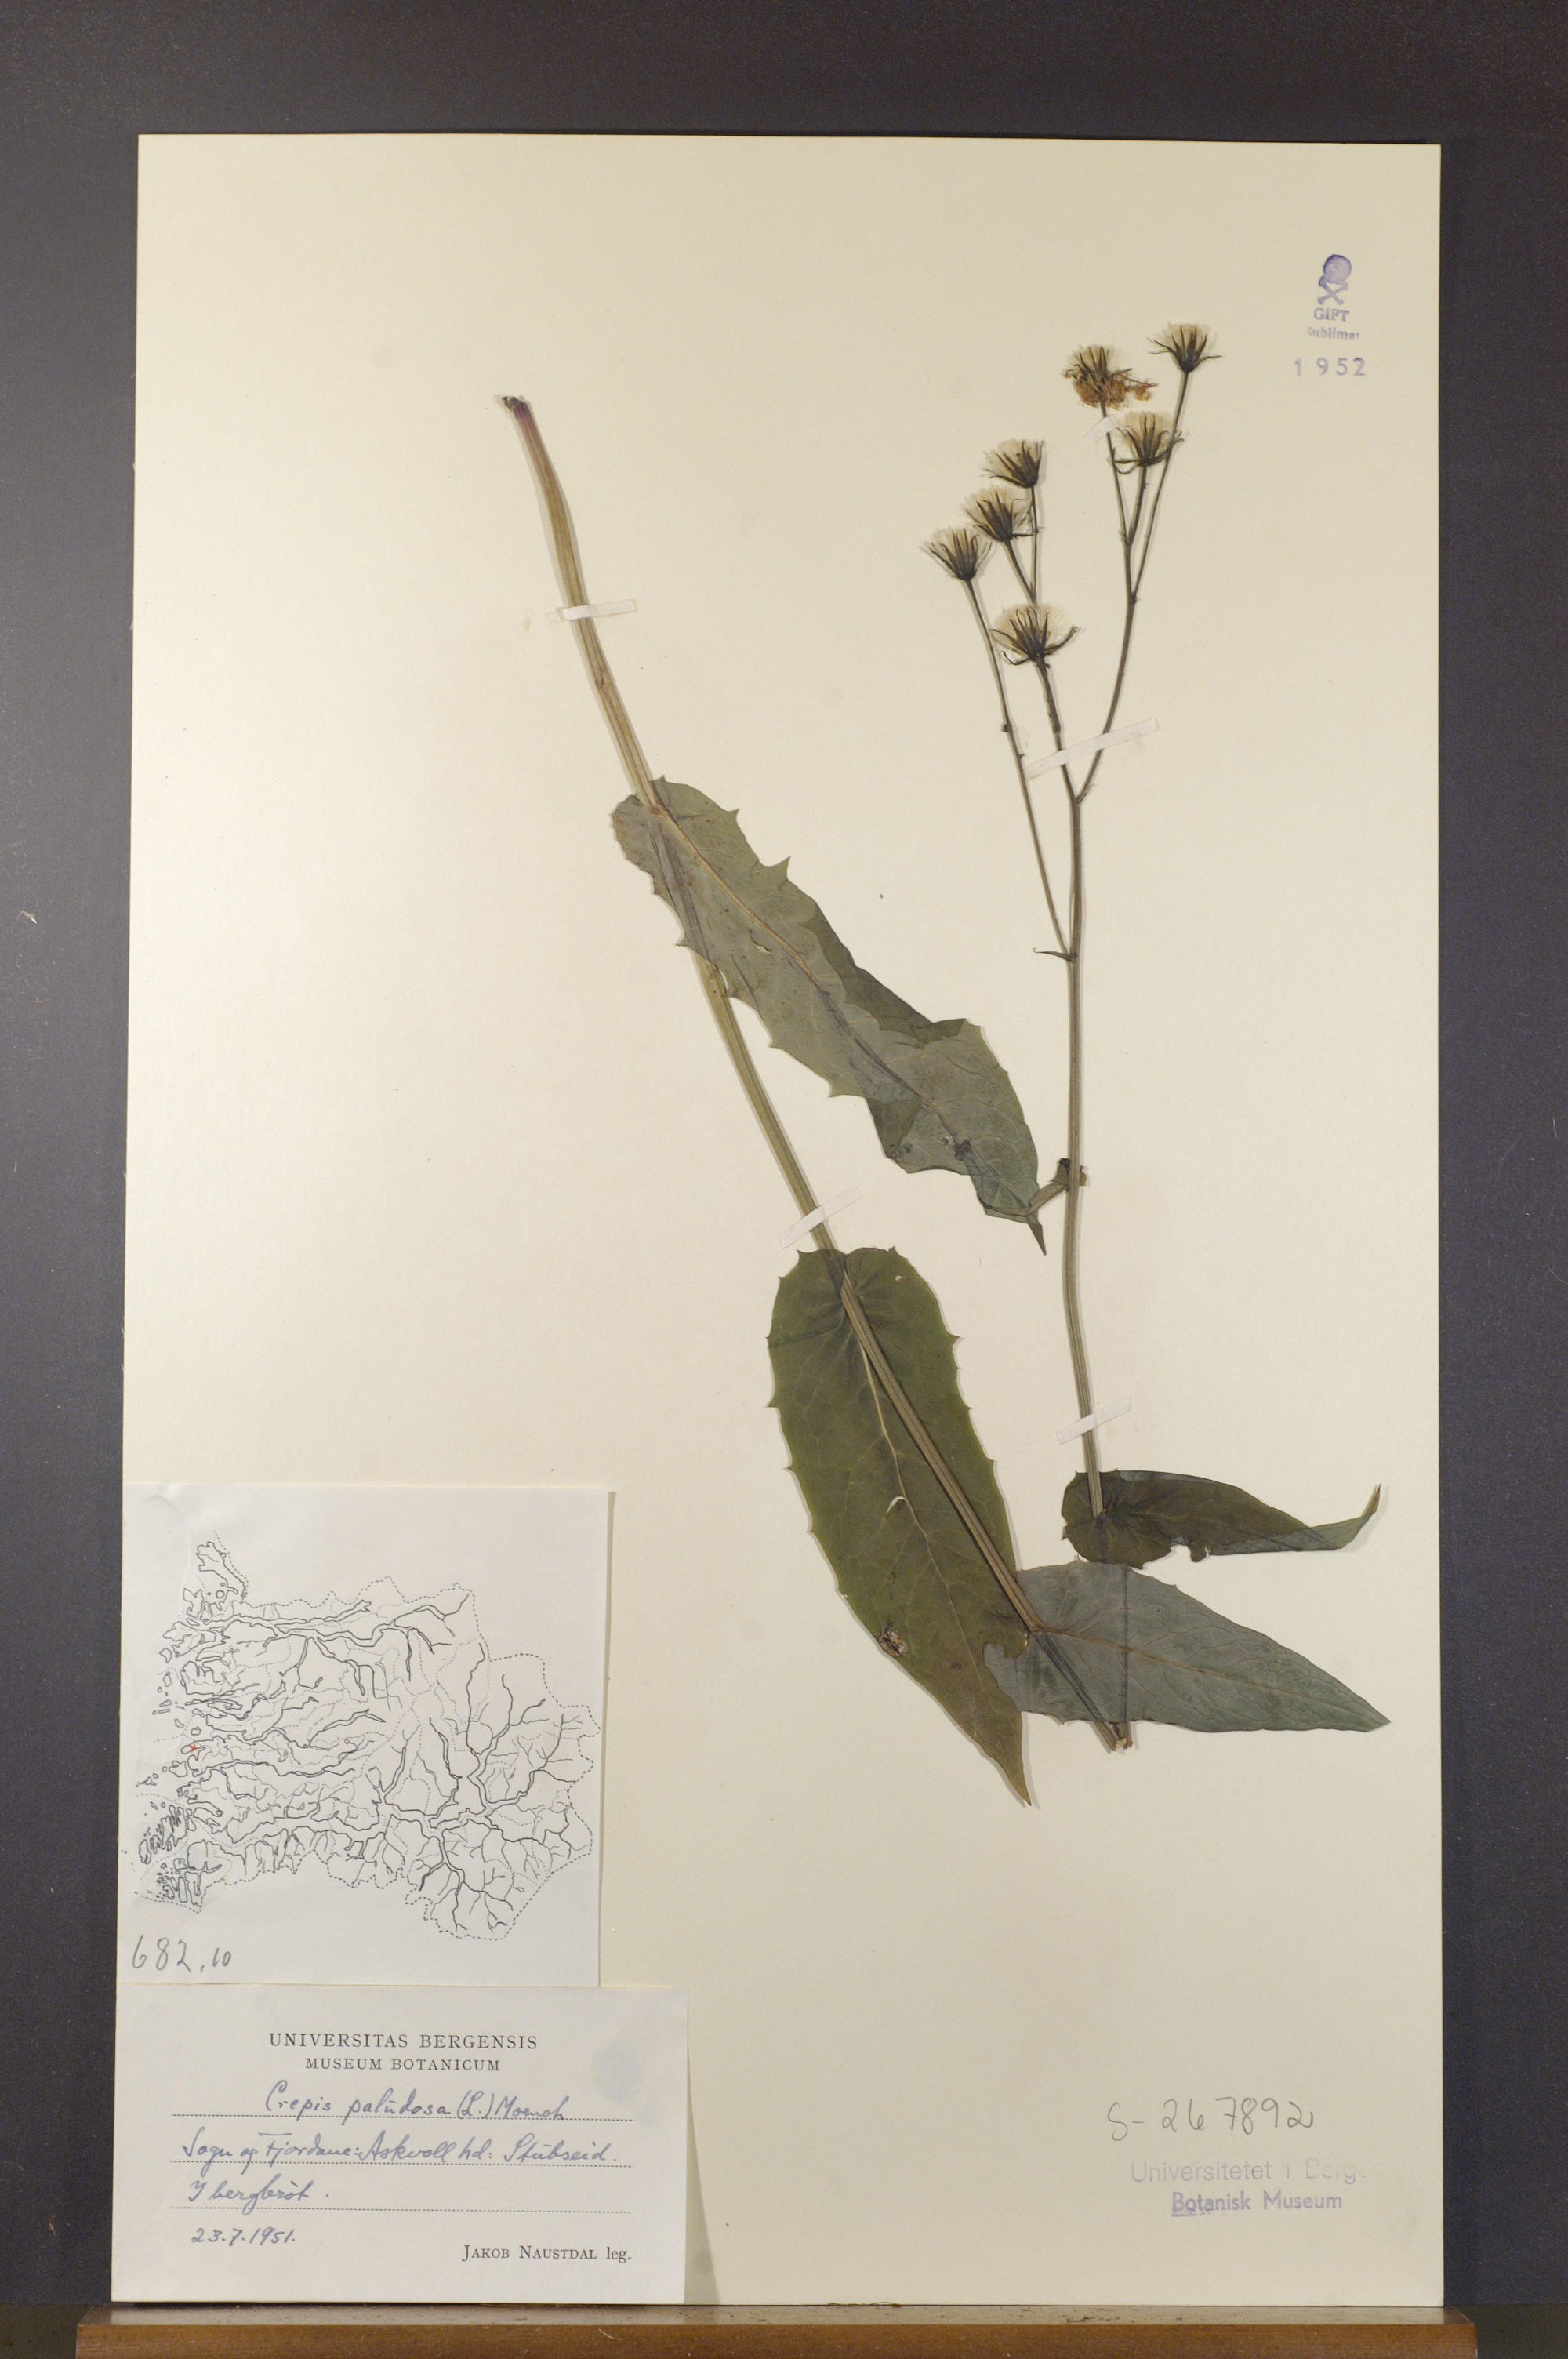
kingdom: Plantae
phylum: Tracheophyta
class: Magnoliopsida
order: Asterales
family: Asteraceae
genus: Crepis
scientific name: Crepis paludosa
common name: Marsh hawk's-beard
